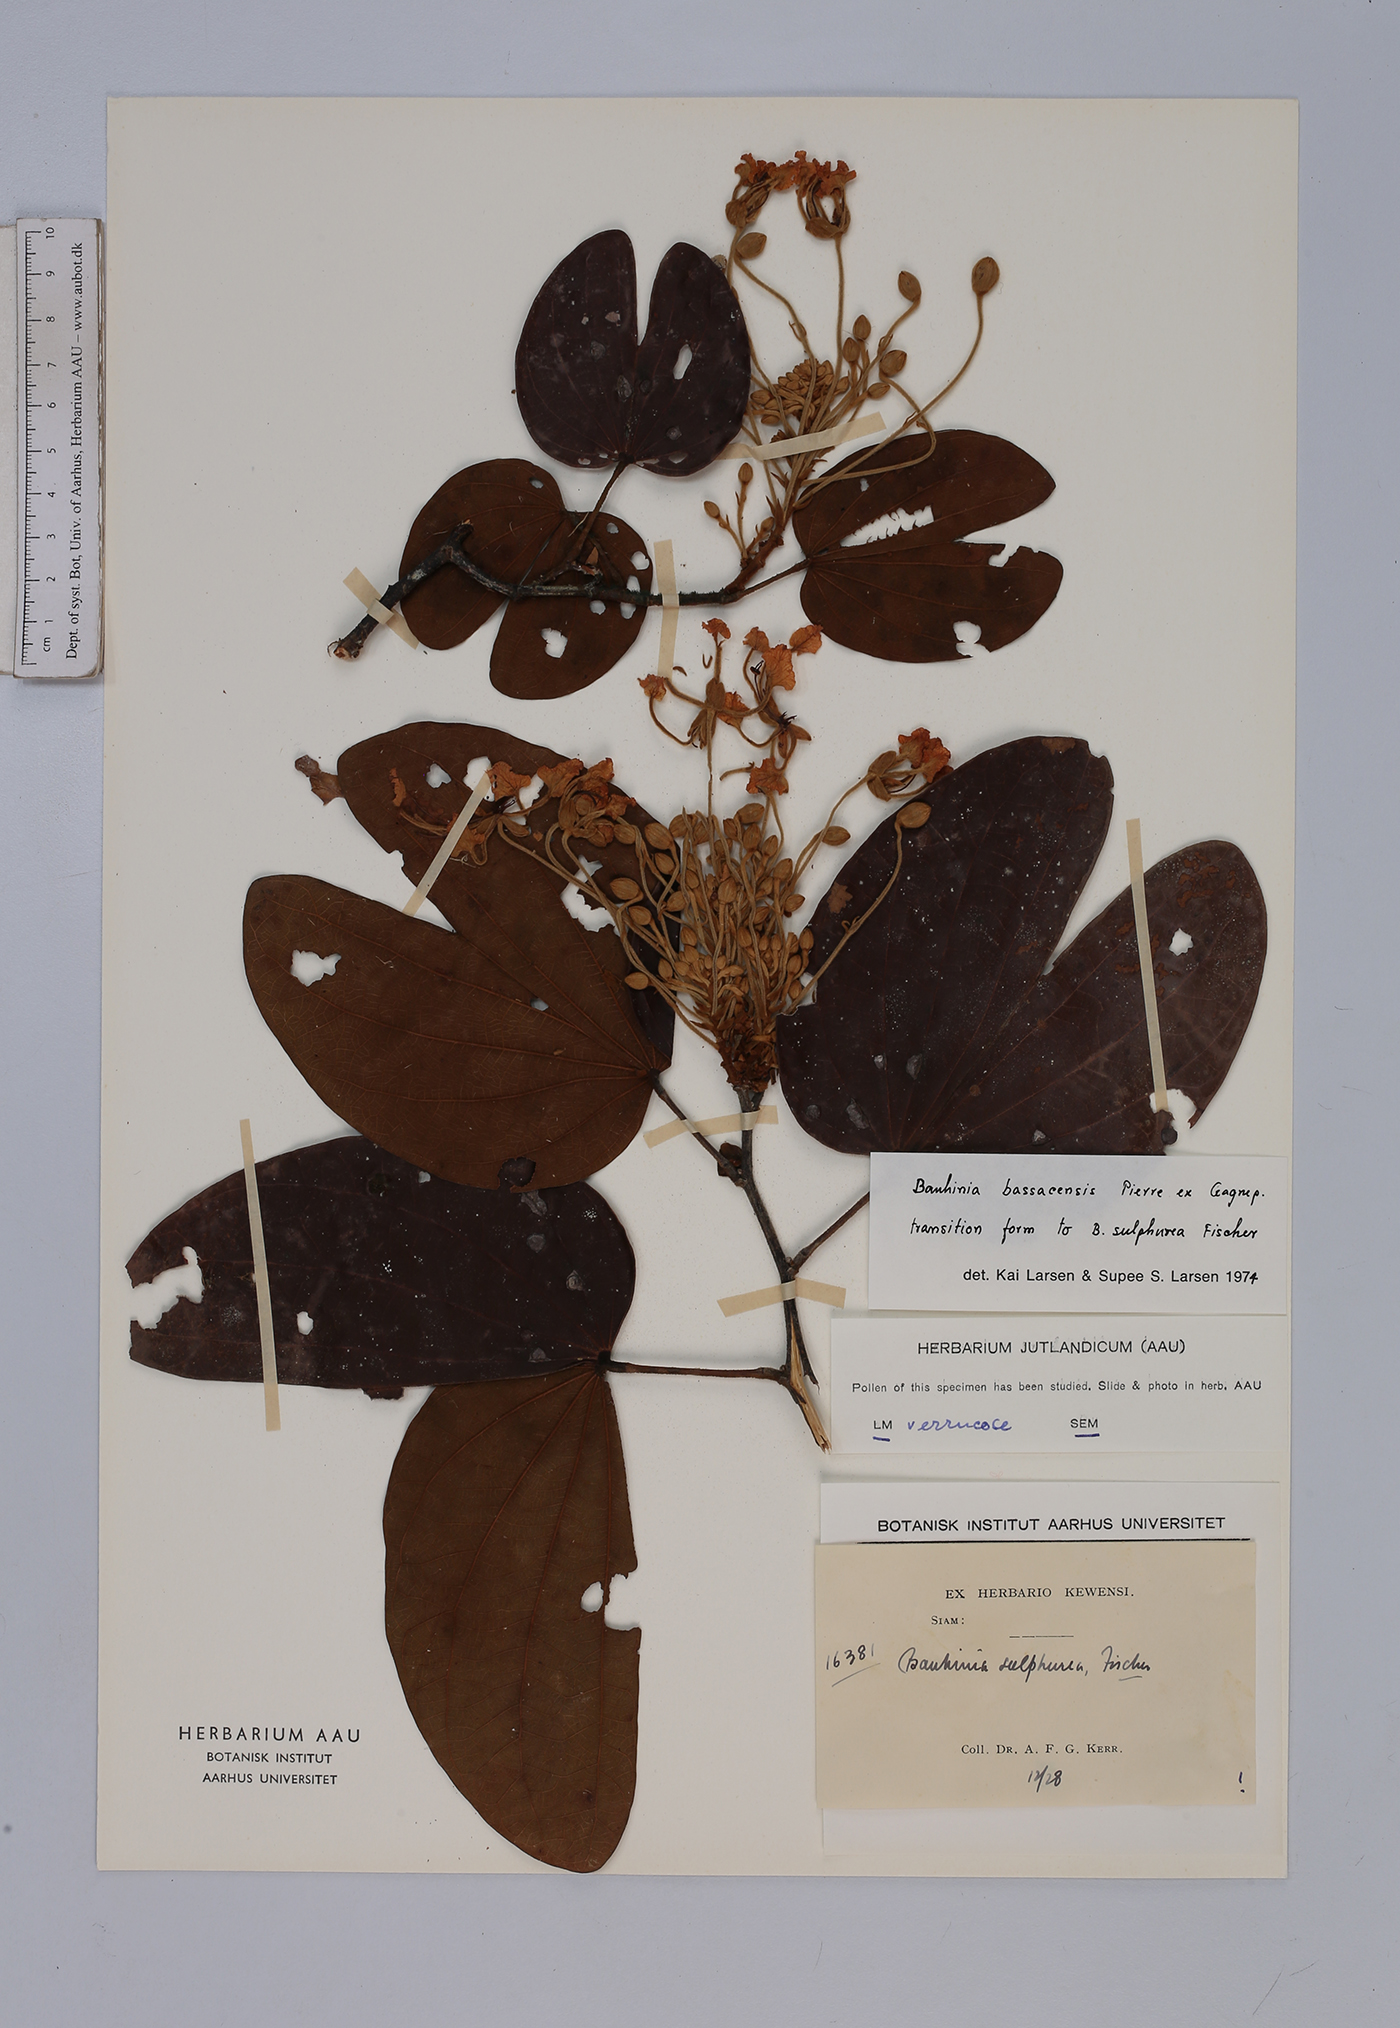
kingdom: Plantae
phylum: Tracheophyta
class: Magnoliopsida
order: Fabales
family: Fabaceae
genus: Phanera
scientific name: Phanera bassacensis
